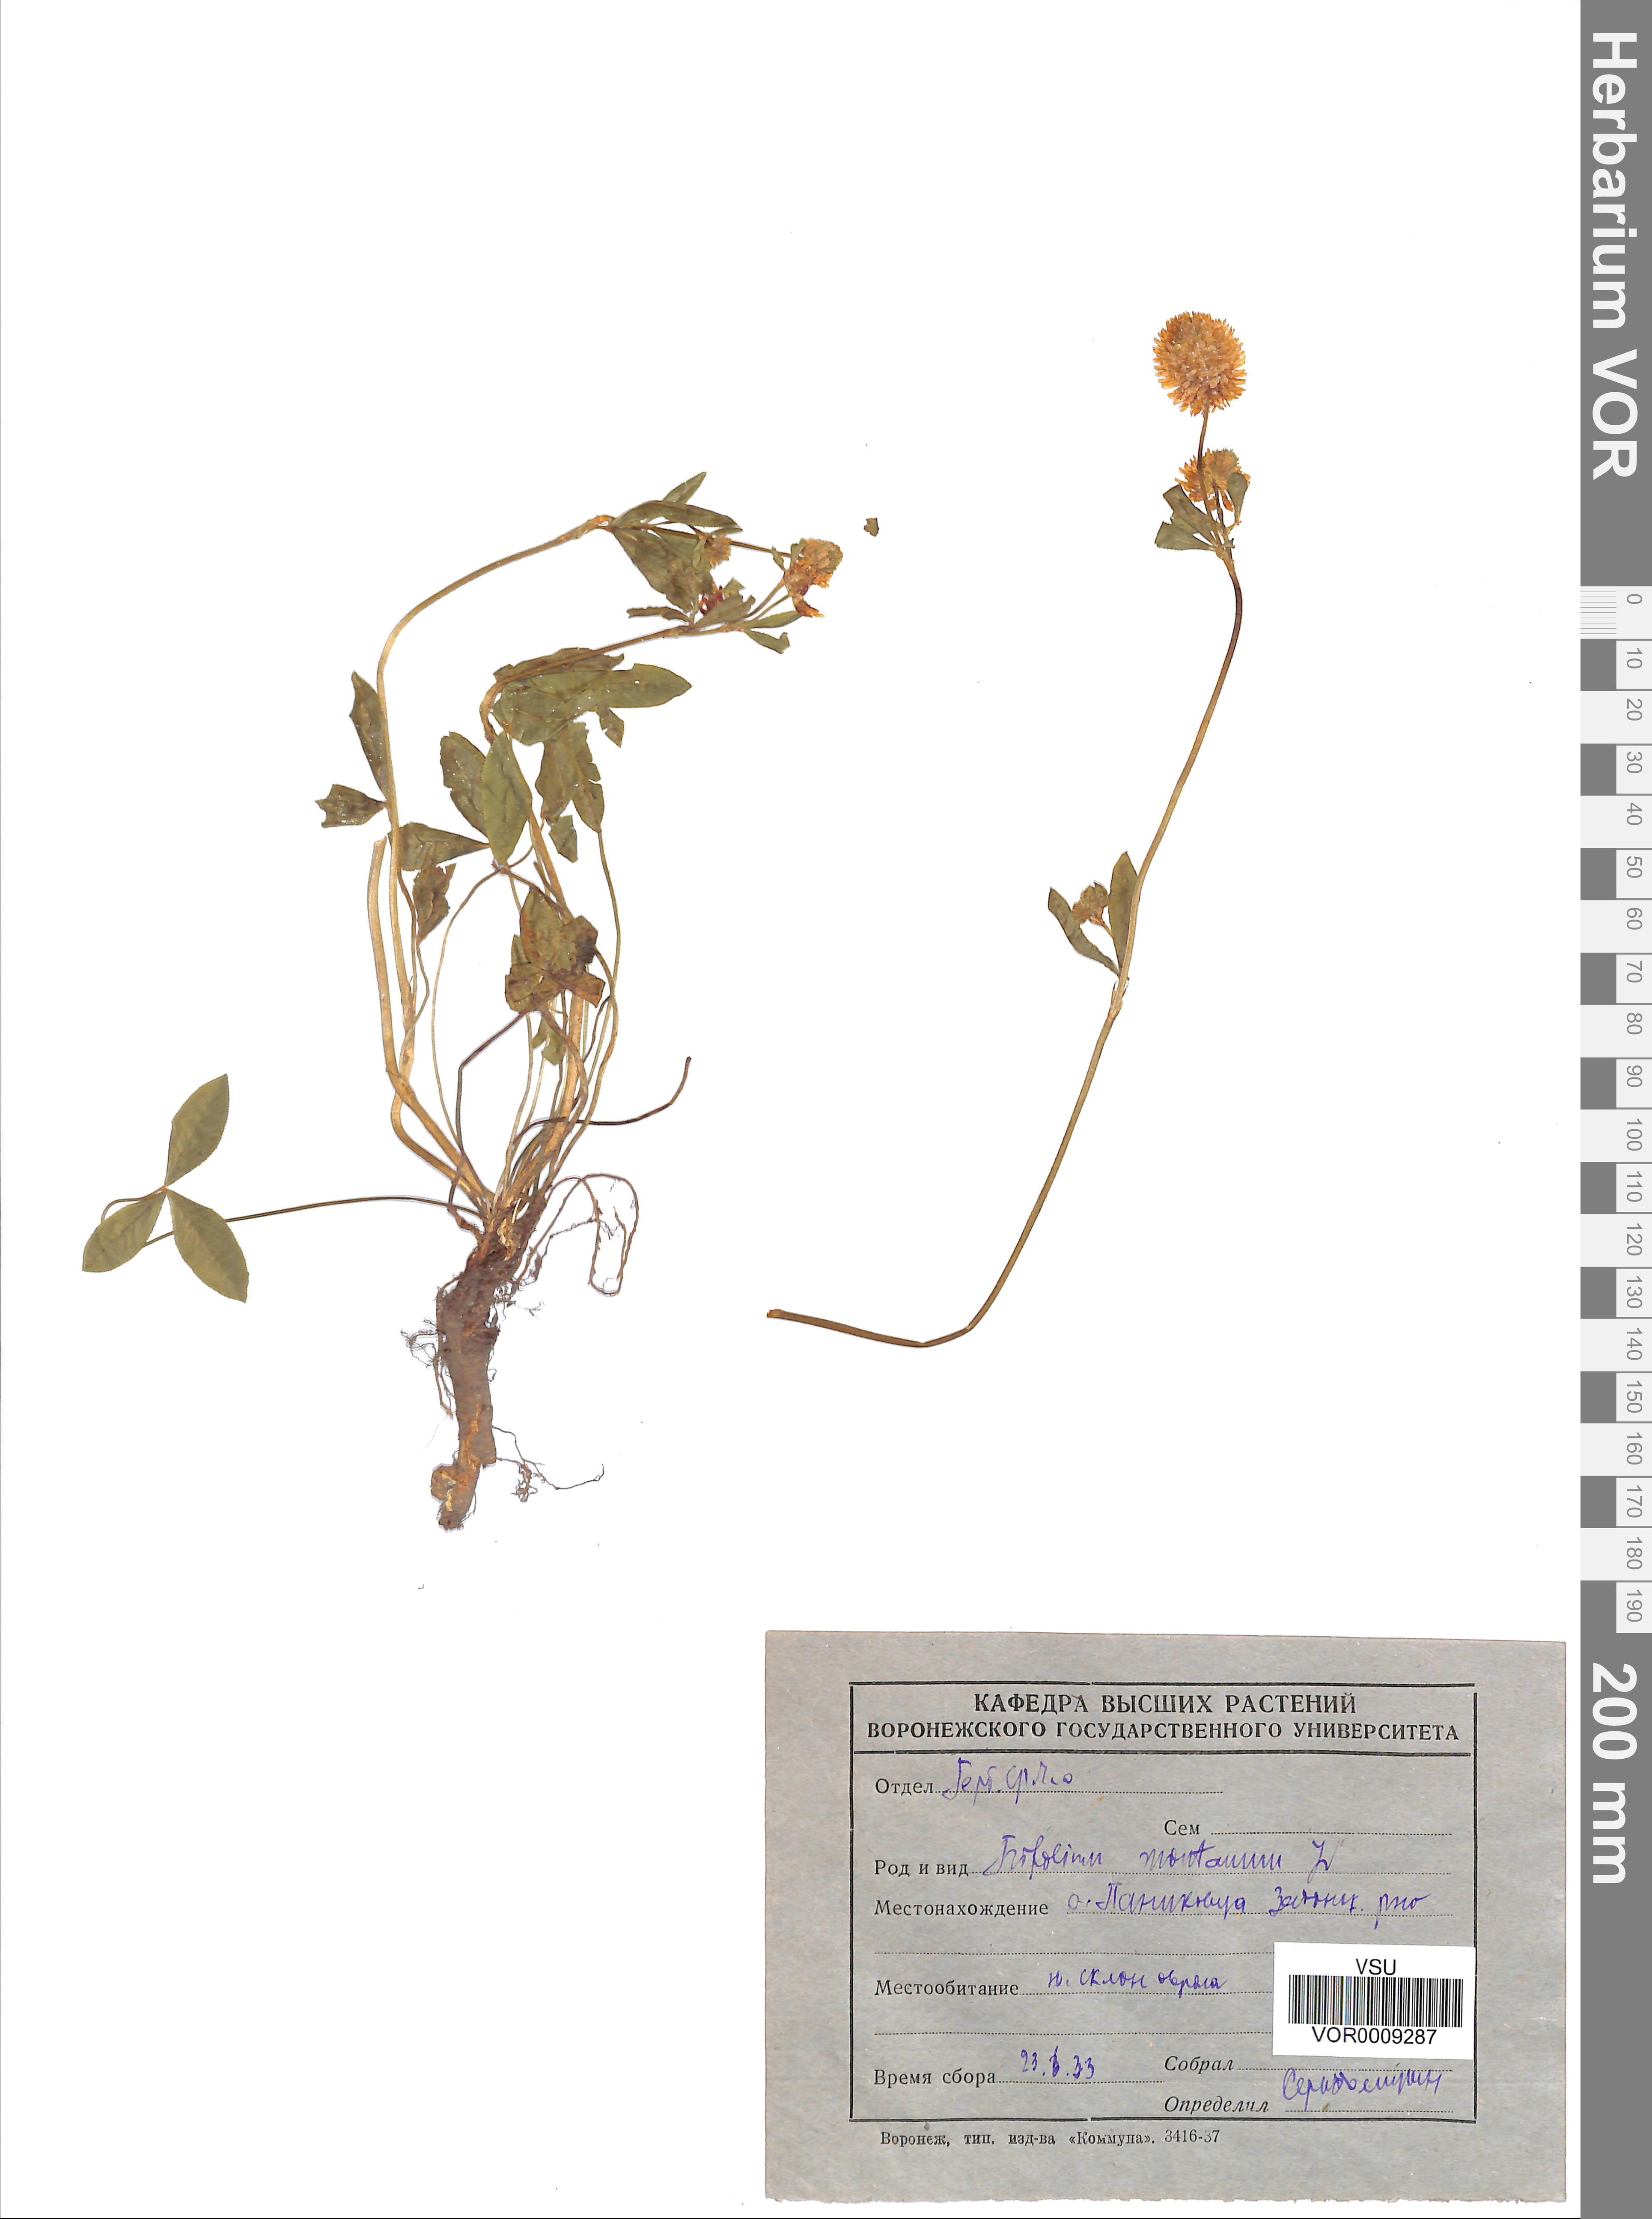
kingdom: Plantae
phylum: Tracheophyta
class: Magnoliopsida
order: Fabales
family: Fabaceae
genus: Trifolium
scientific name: Trifolium montanum
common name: Mountain clover
